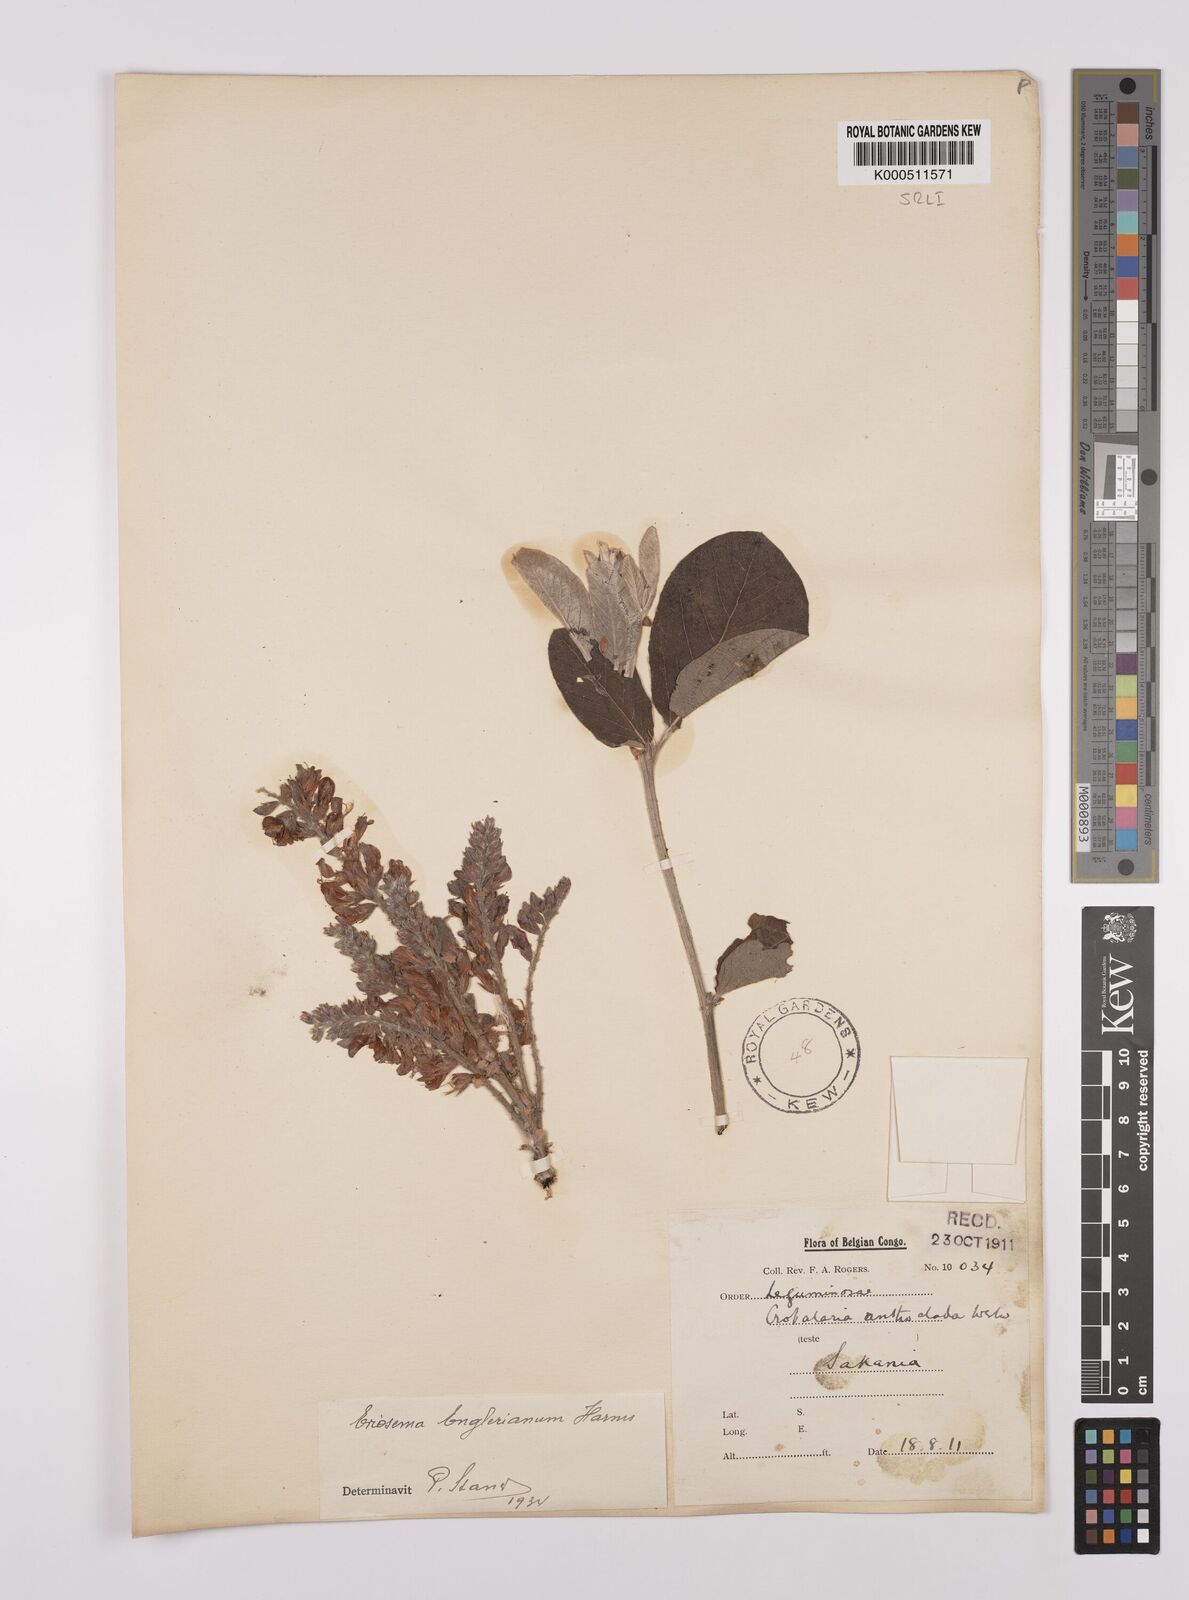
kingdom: Plantae
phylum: Tracheophyta
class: Magnoliopsida
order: Fabales
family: Fabaceae
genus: Eriosema
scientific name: Eriosema englerianum
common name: Blue bush
